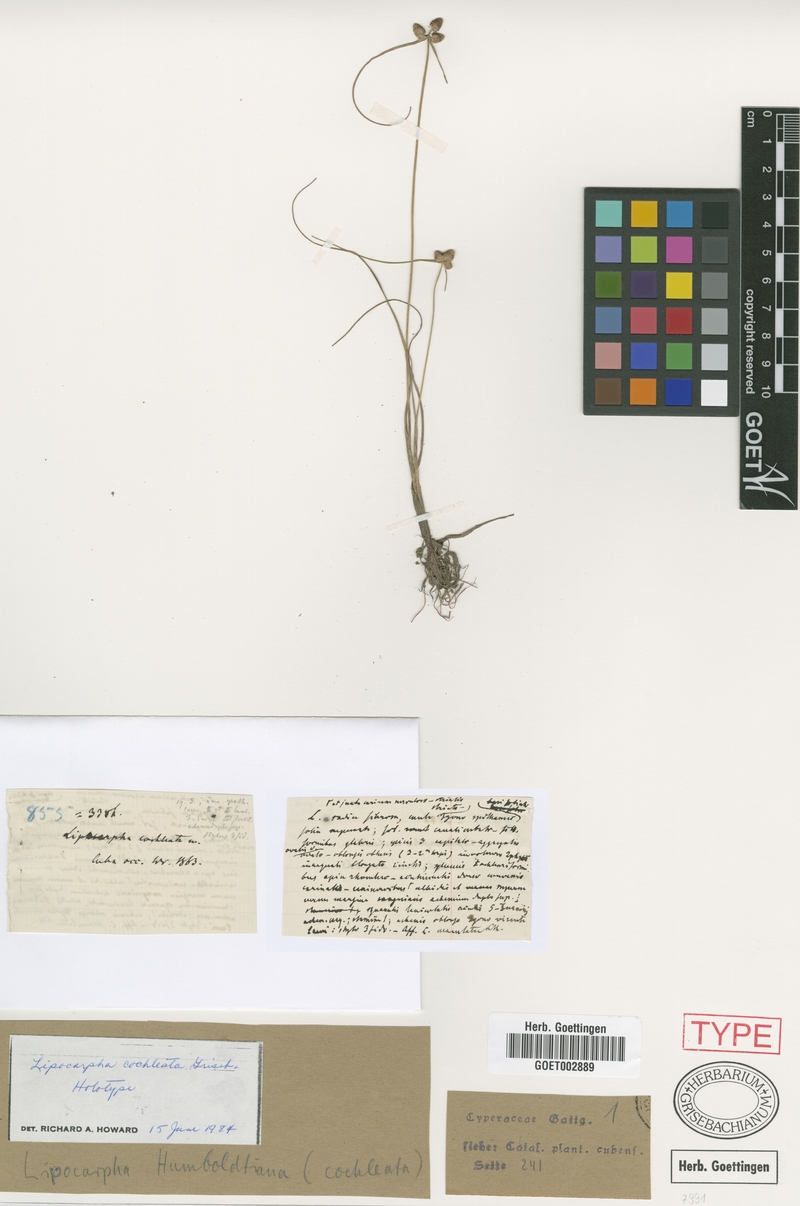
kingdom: Plantae
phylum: Tracheophyta
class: Liliopsida
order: Poales
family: Cyperaceae
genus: Cyperus
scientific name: Cyperus salzmannianus
